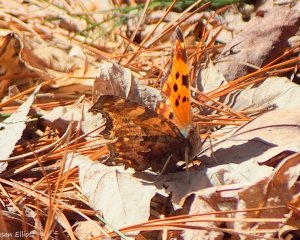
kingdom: Animalia
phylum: Arthropoda
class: Insecta
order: Lepidoptera
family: Nymphalidae
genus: Polygonia
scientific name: Polygonia comma
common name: Eastern Comma
